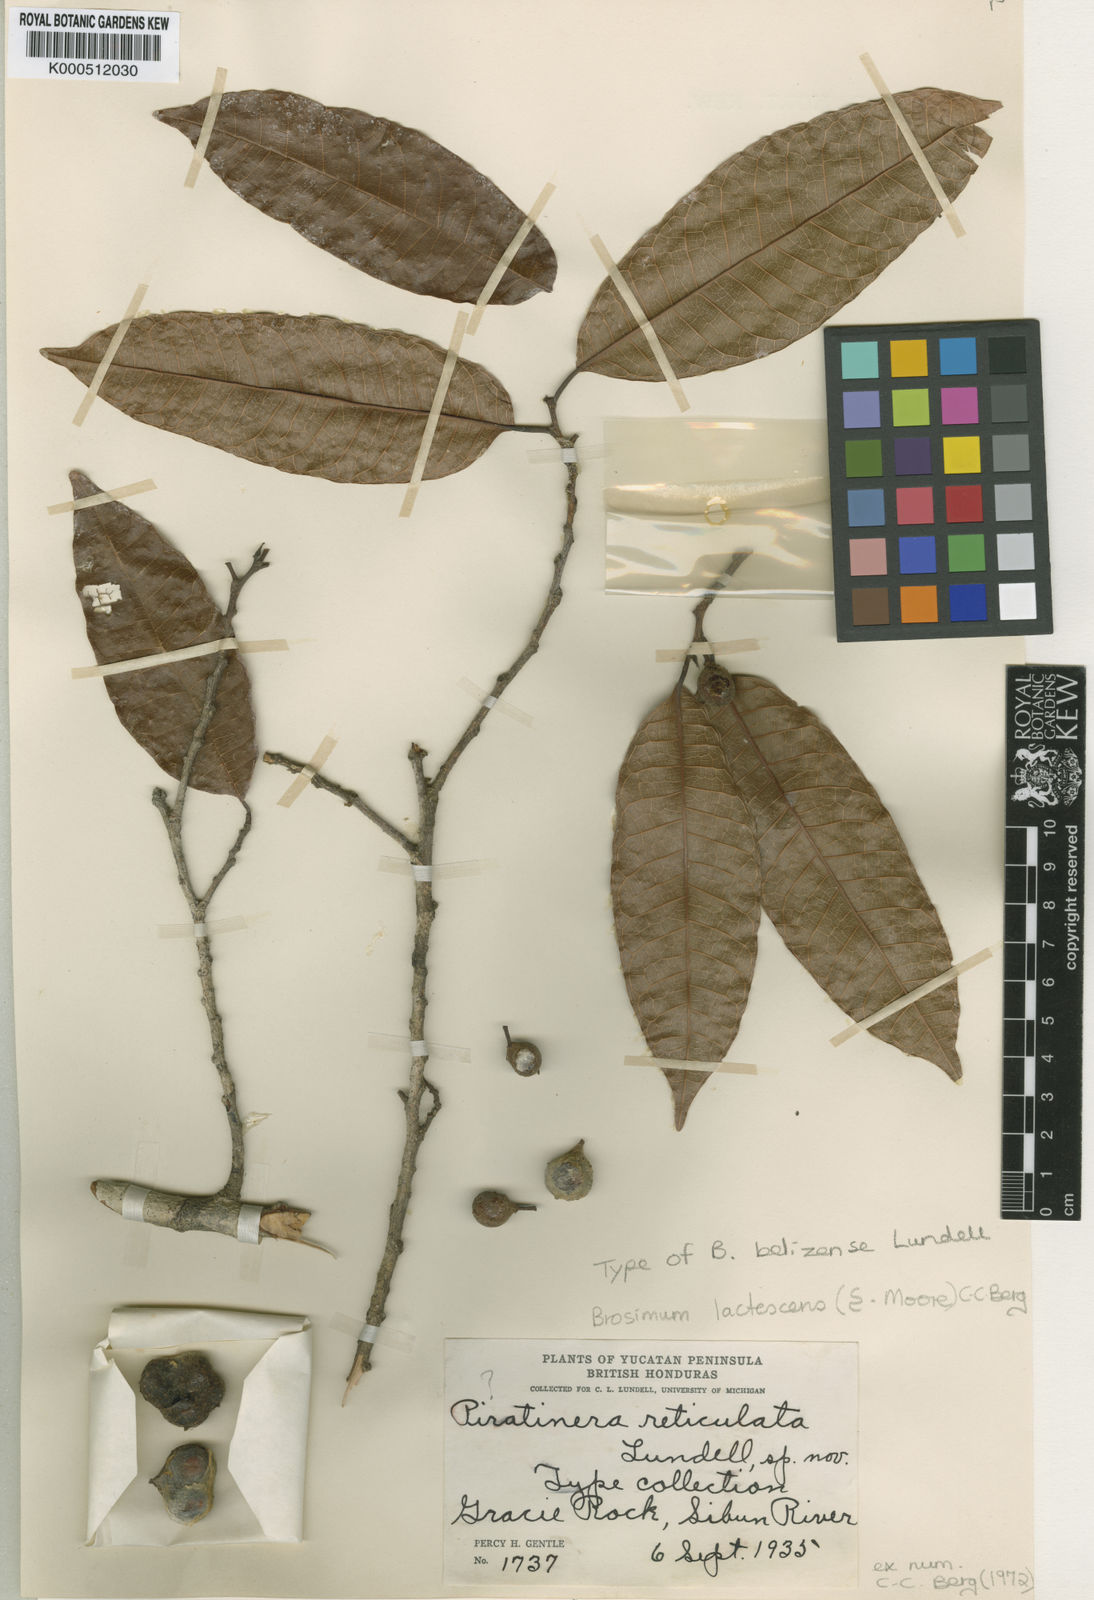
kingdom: Plantae
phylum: Tracheophyta
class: Magnoliopsida
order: Rosales
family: Moraceae
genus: Brosimum
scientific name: Brosimum lactescens
